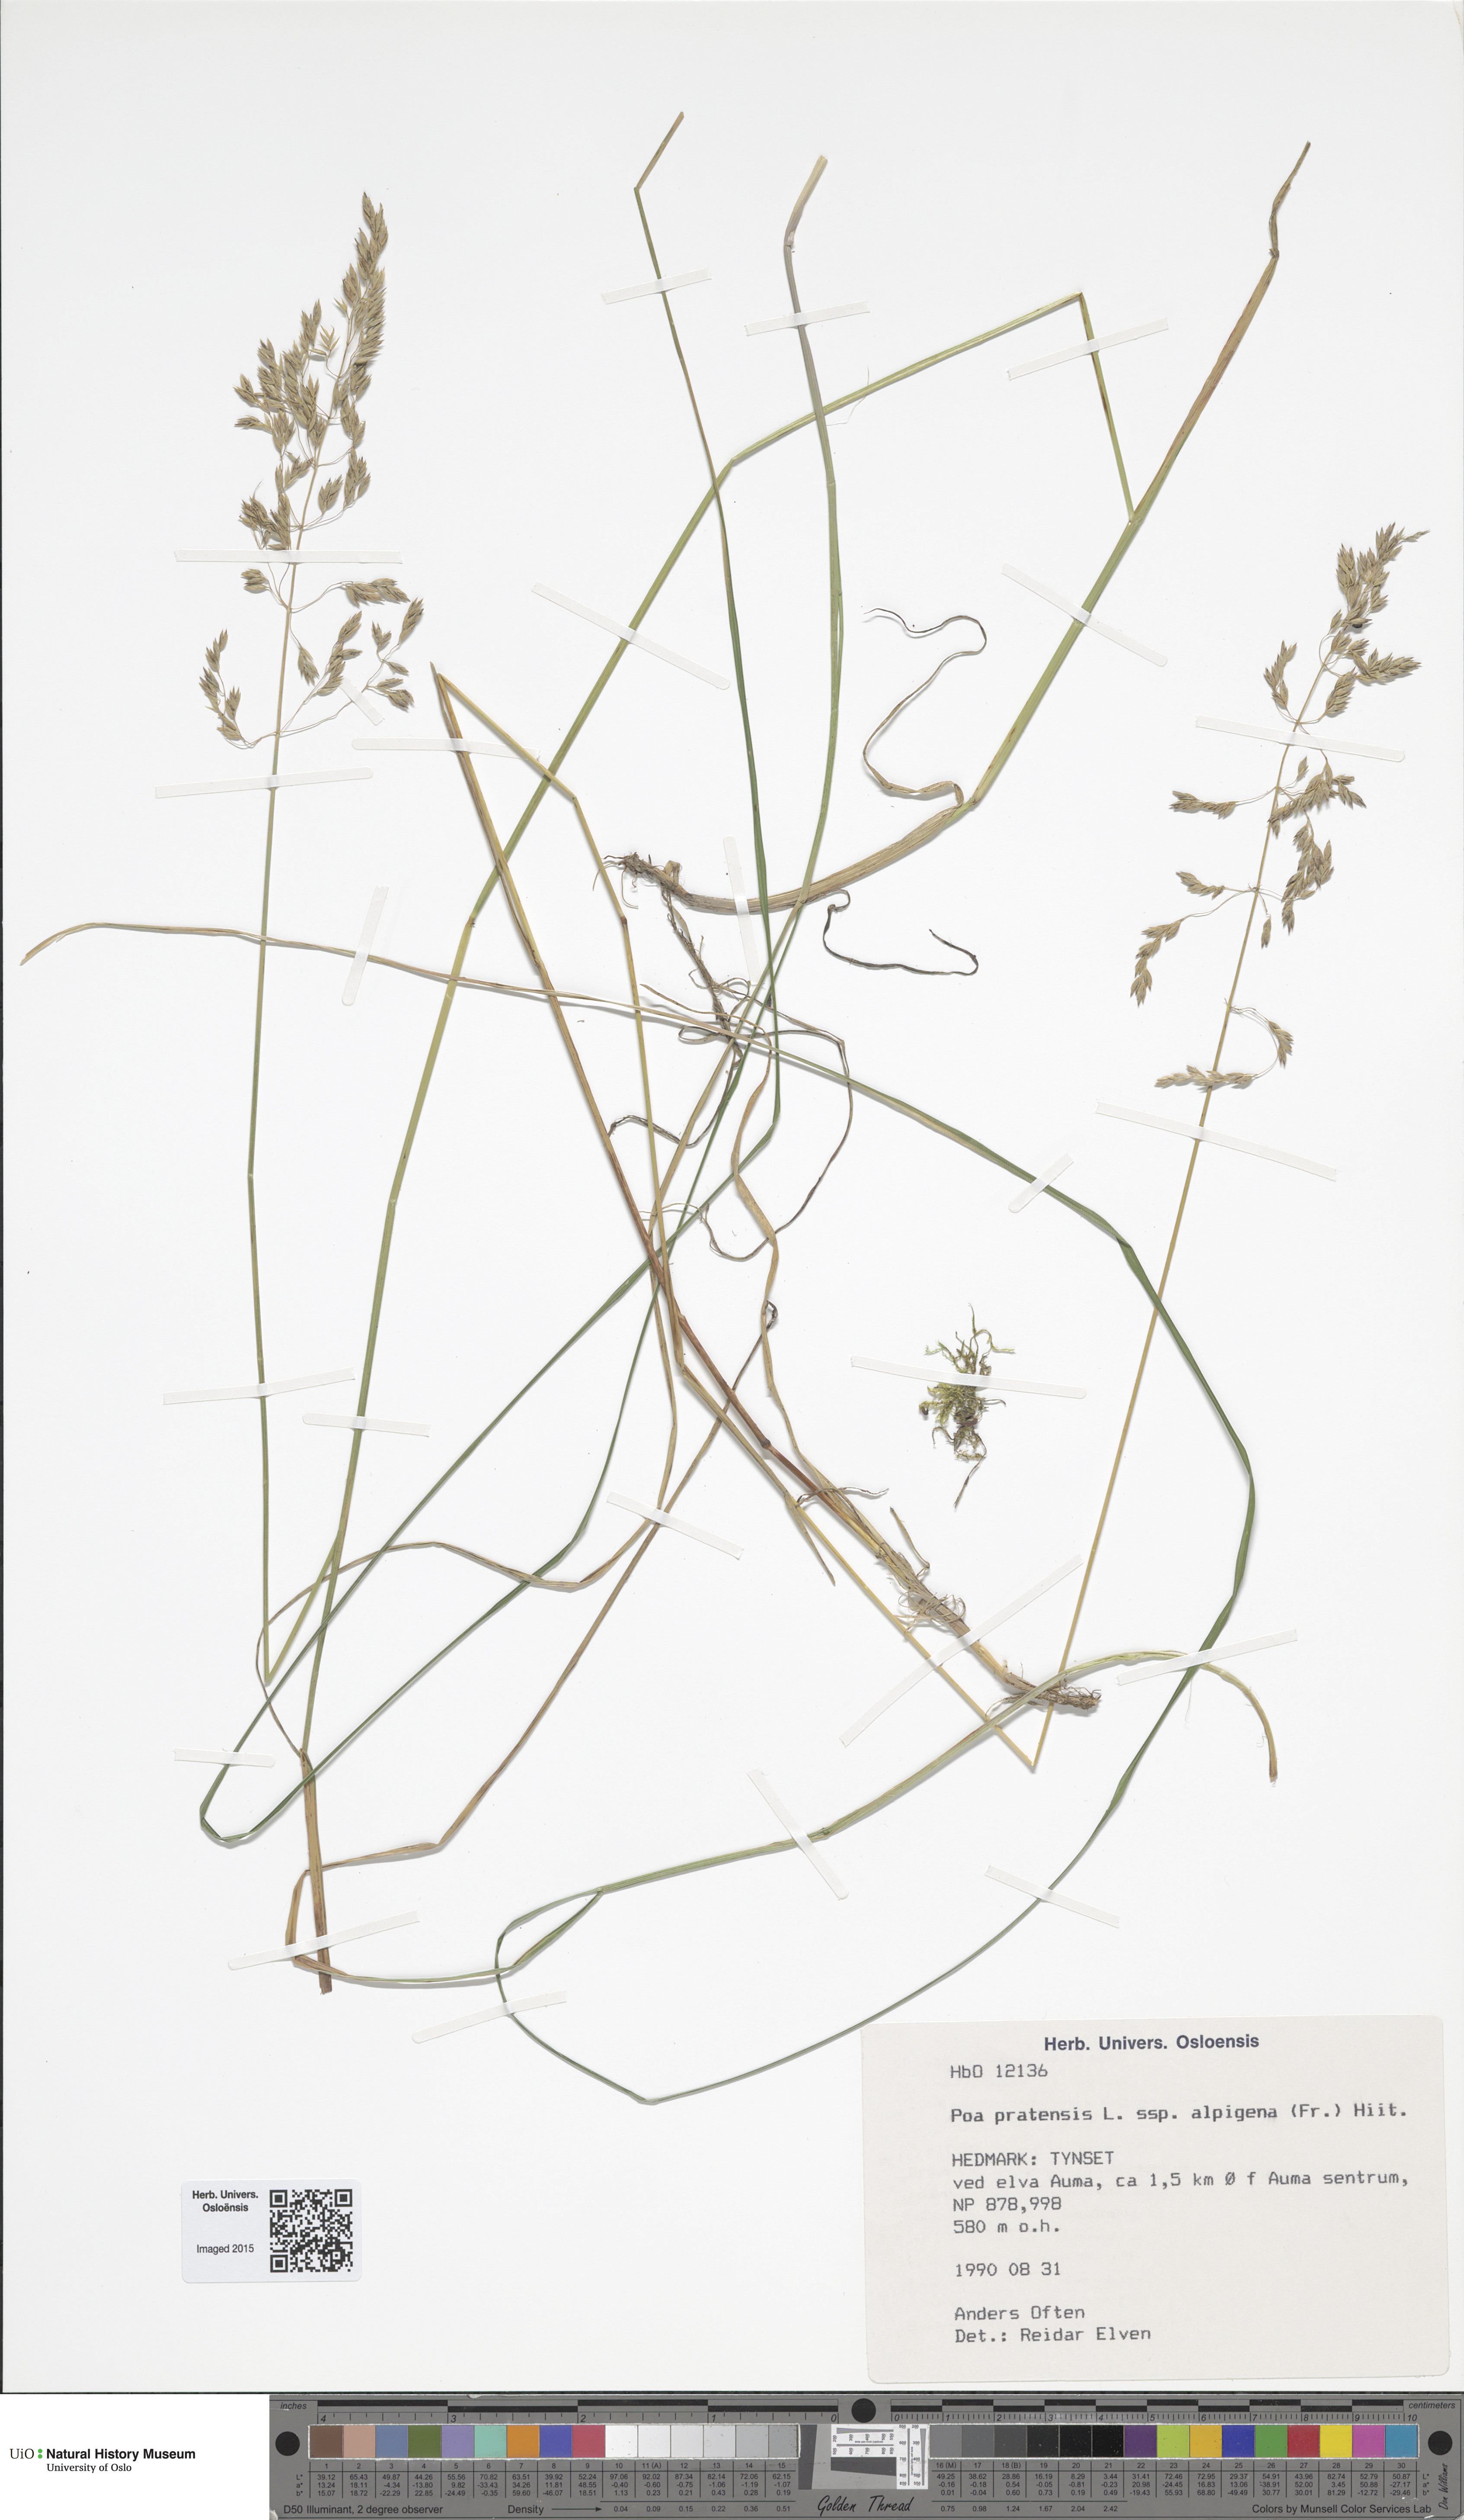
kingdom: Plantae
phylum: Tracheophyta
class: Liliopsida
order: Poales
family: Poaceae
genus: Poa
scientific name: Poa alpigena
